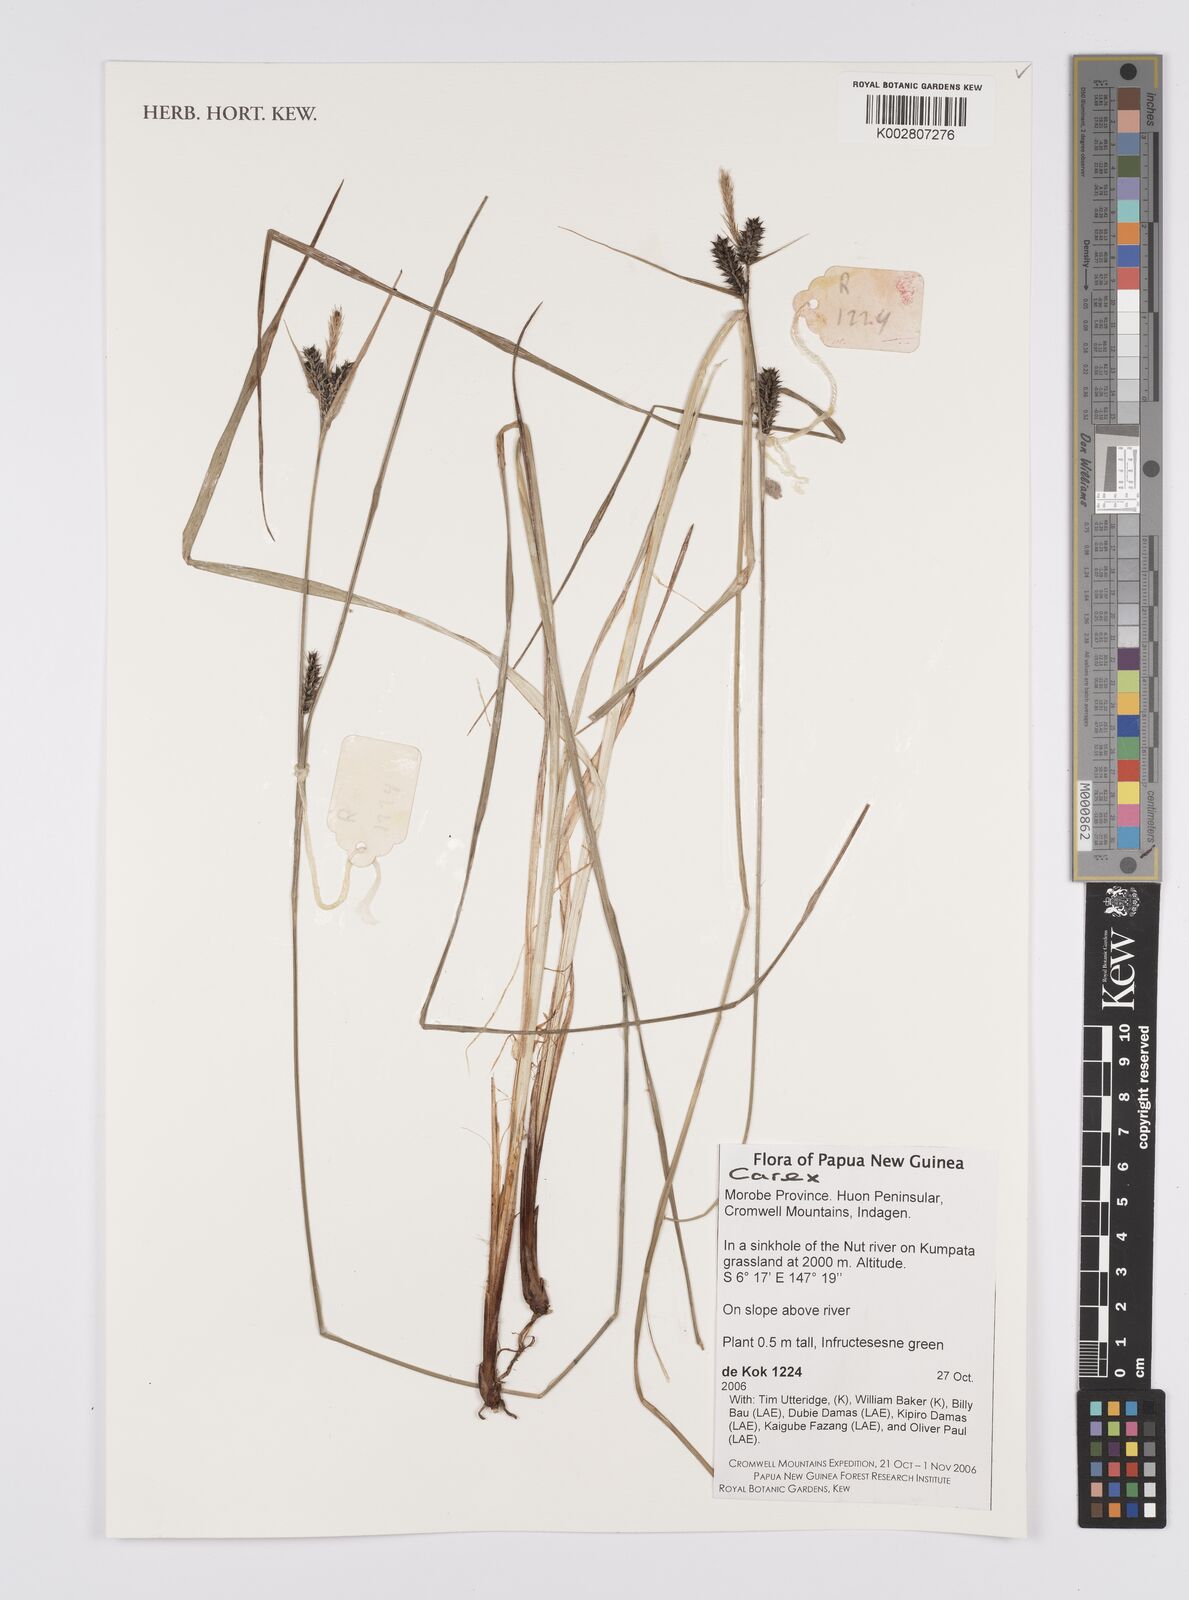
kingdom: Plantae
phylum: Tracheophyta
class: Liliopsida
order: Poales
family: Cyperaceae
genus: Carex
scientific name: Carex
